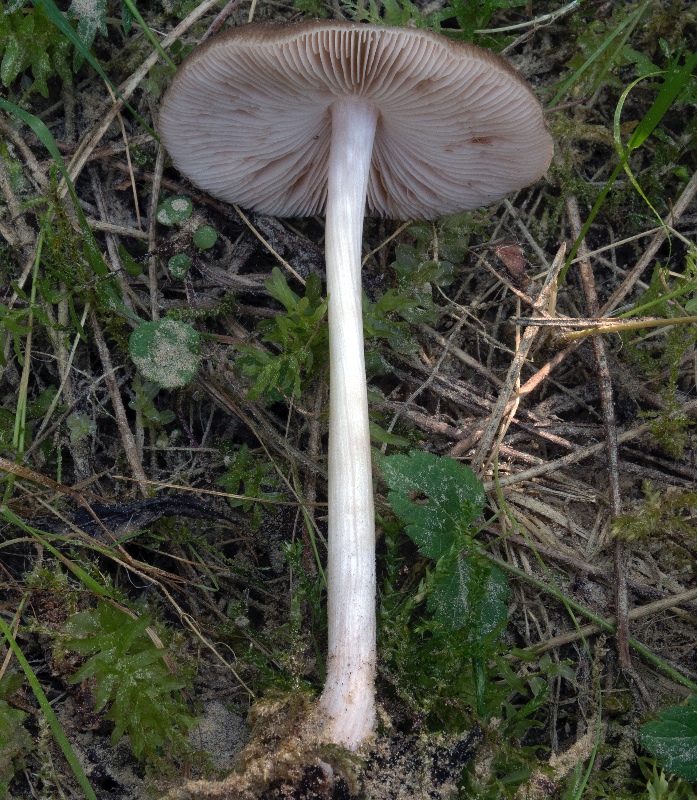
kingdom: Fungi
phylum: Basidiomycota
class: Agaricomycetes
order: Agaricales
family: Pluteaceae
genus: Pluteus
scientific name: Pluteus roseipes
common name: rosafodet skærmhat
